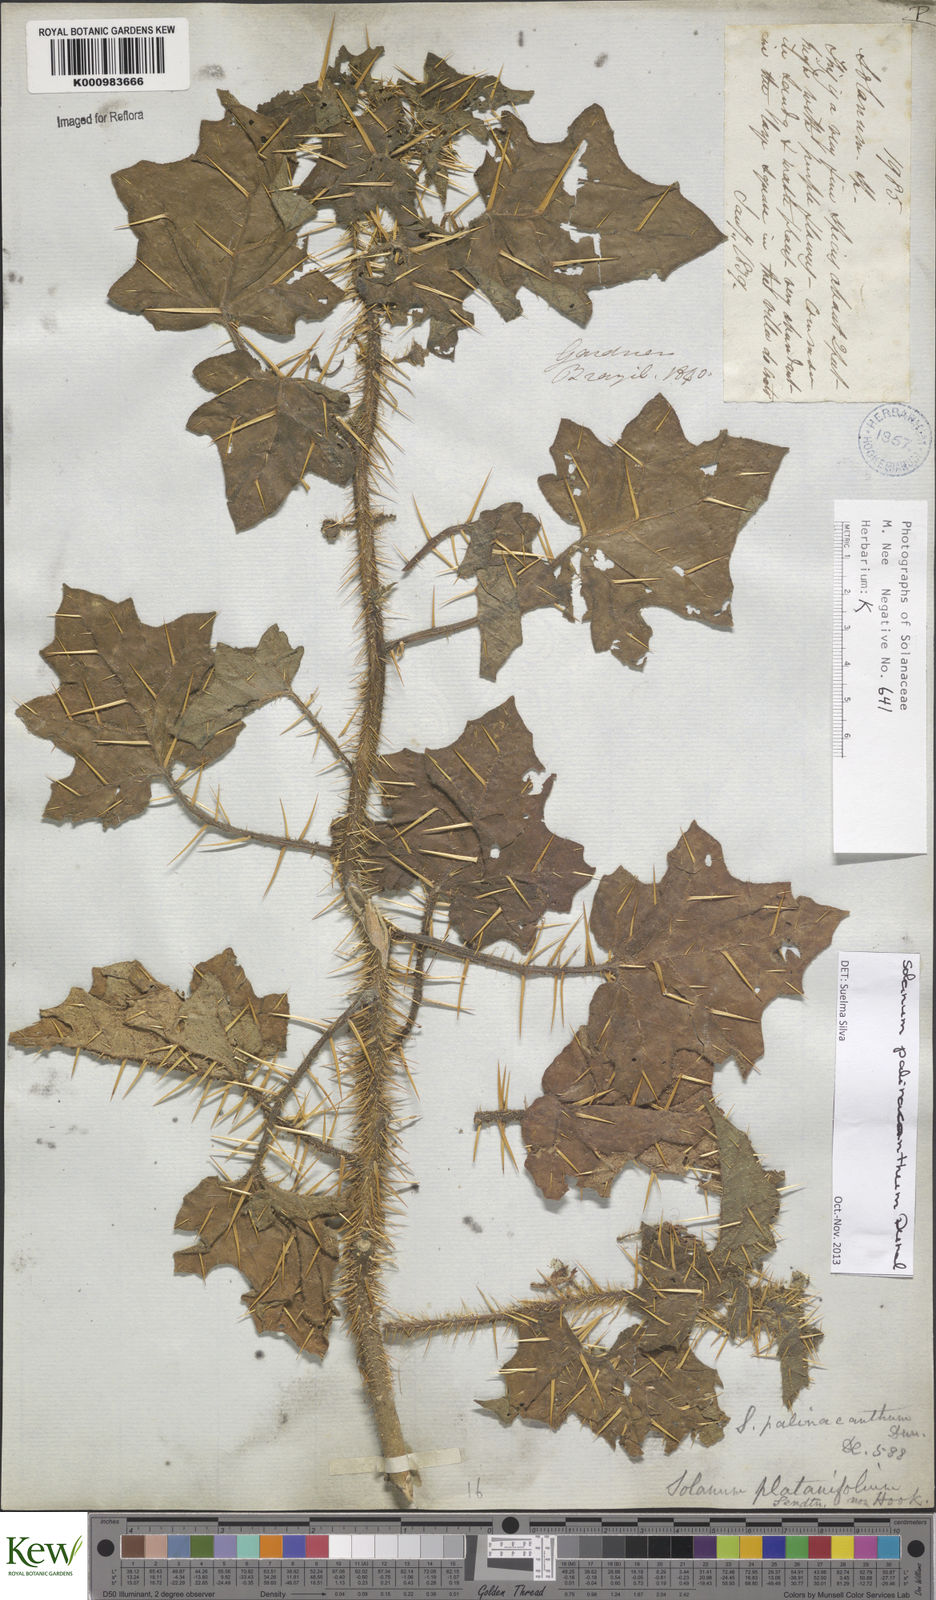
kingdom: Plantae
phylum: Tracheophyta
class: Magnoliopsida
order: Solanales
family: Solanaceae
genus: Solanum
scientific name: Solanum palinacanthum
